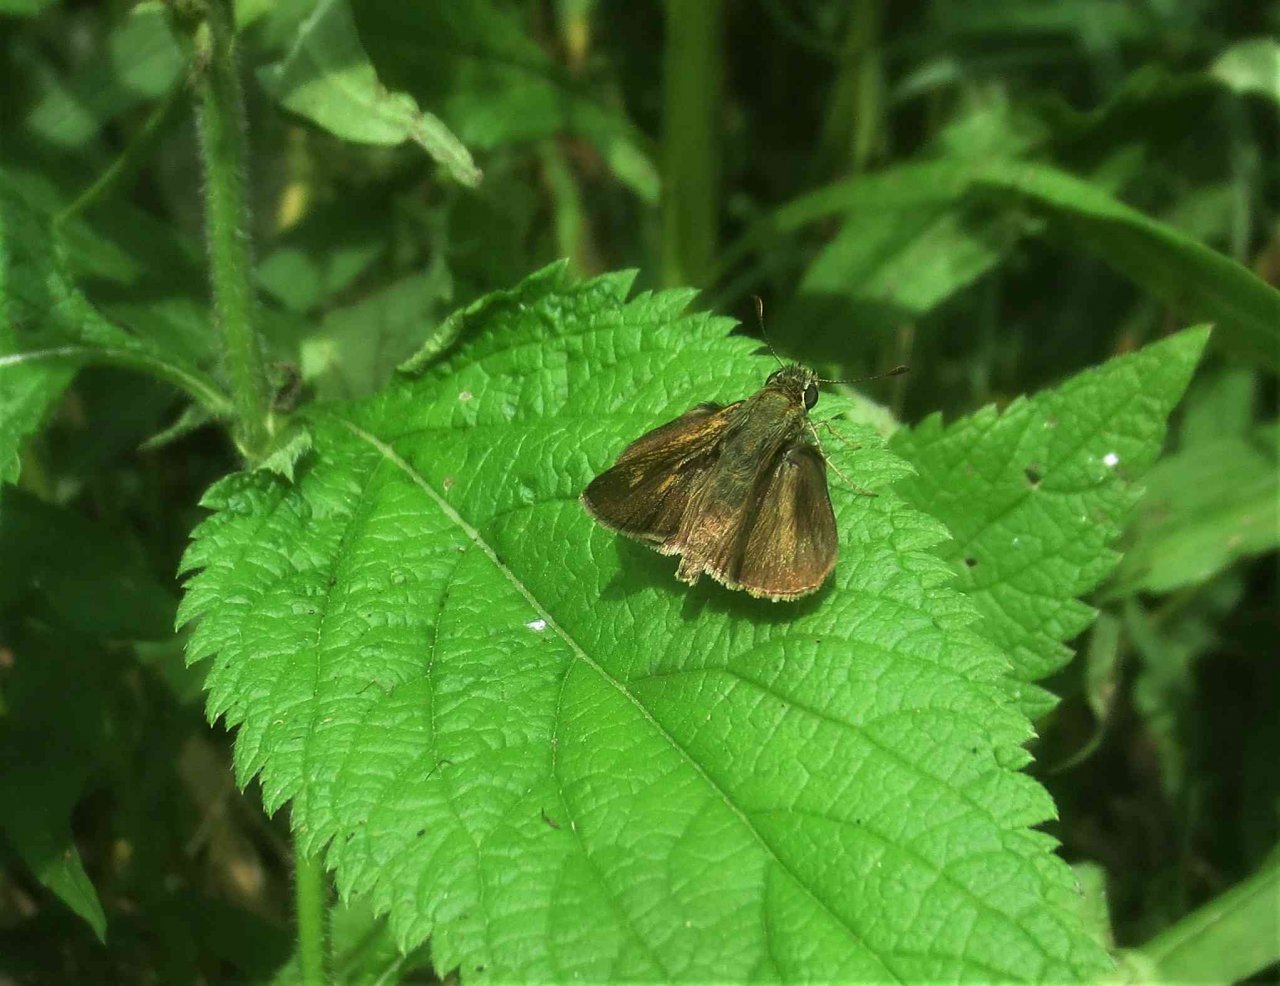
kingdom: Animalia
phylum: Arthropoda
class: Insecta
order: Lepidoptera
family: Hesperiidae
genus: Polites
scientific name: Polites egeremet
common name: Northern Broken-Dash
